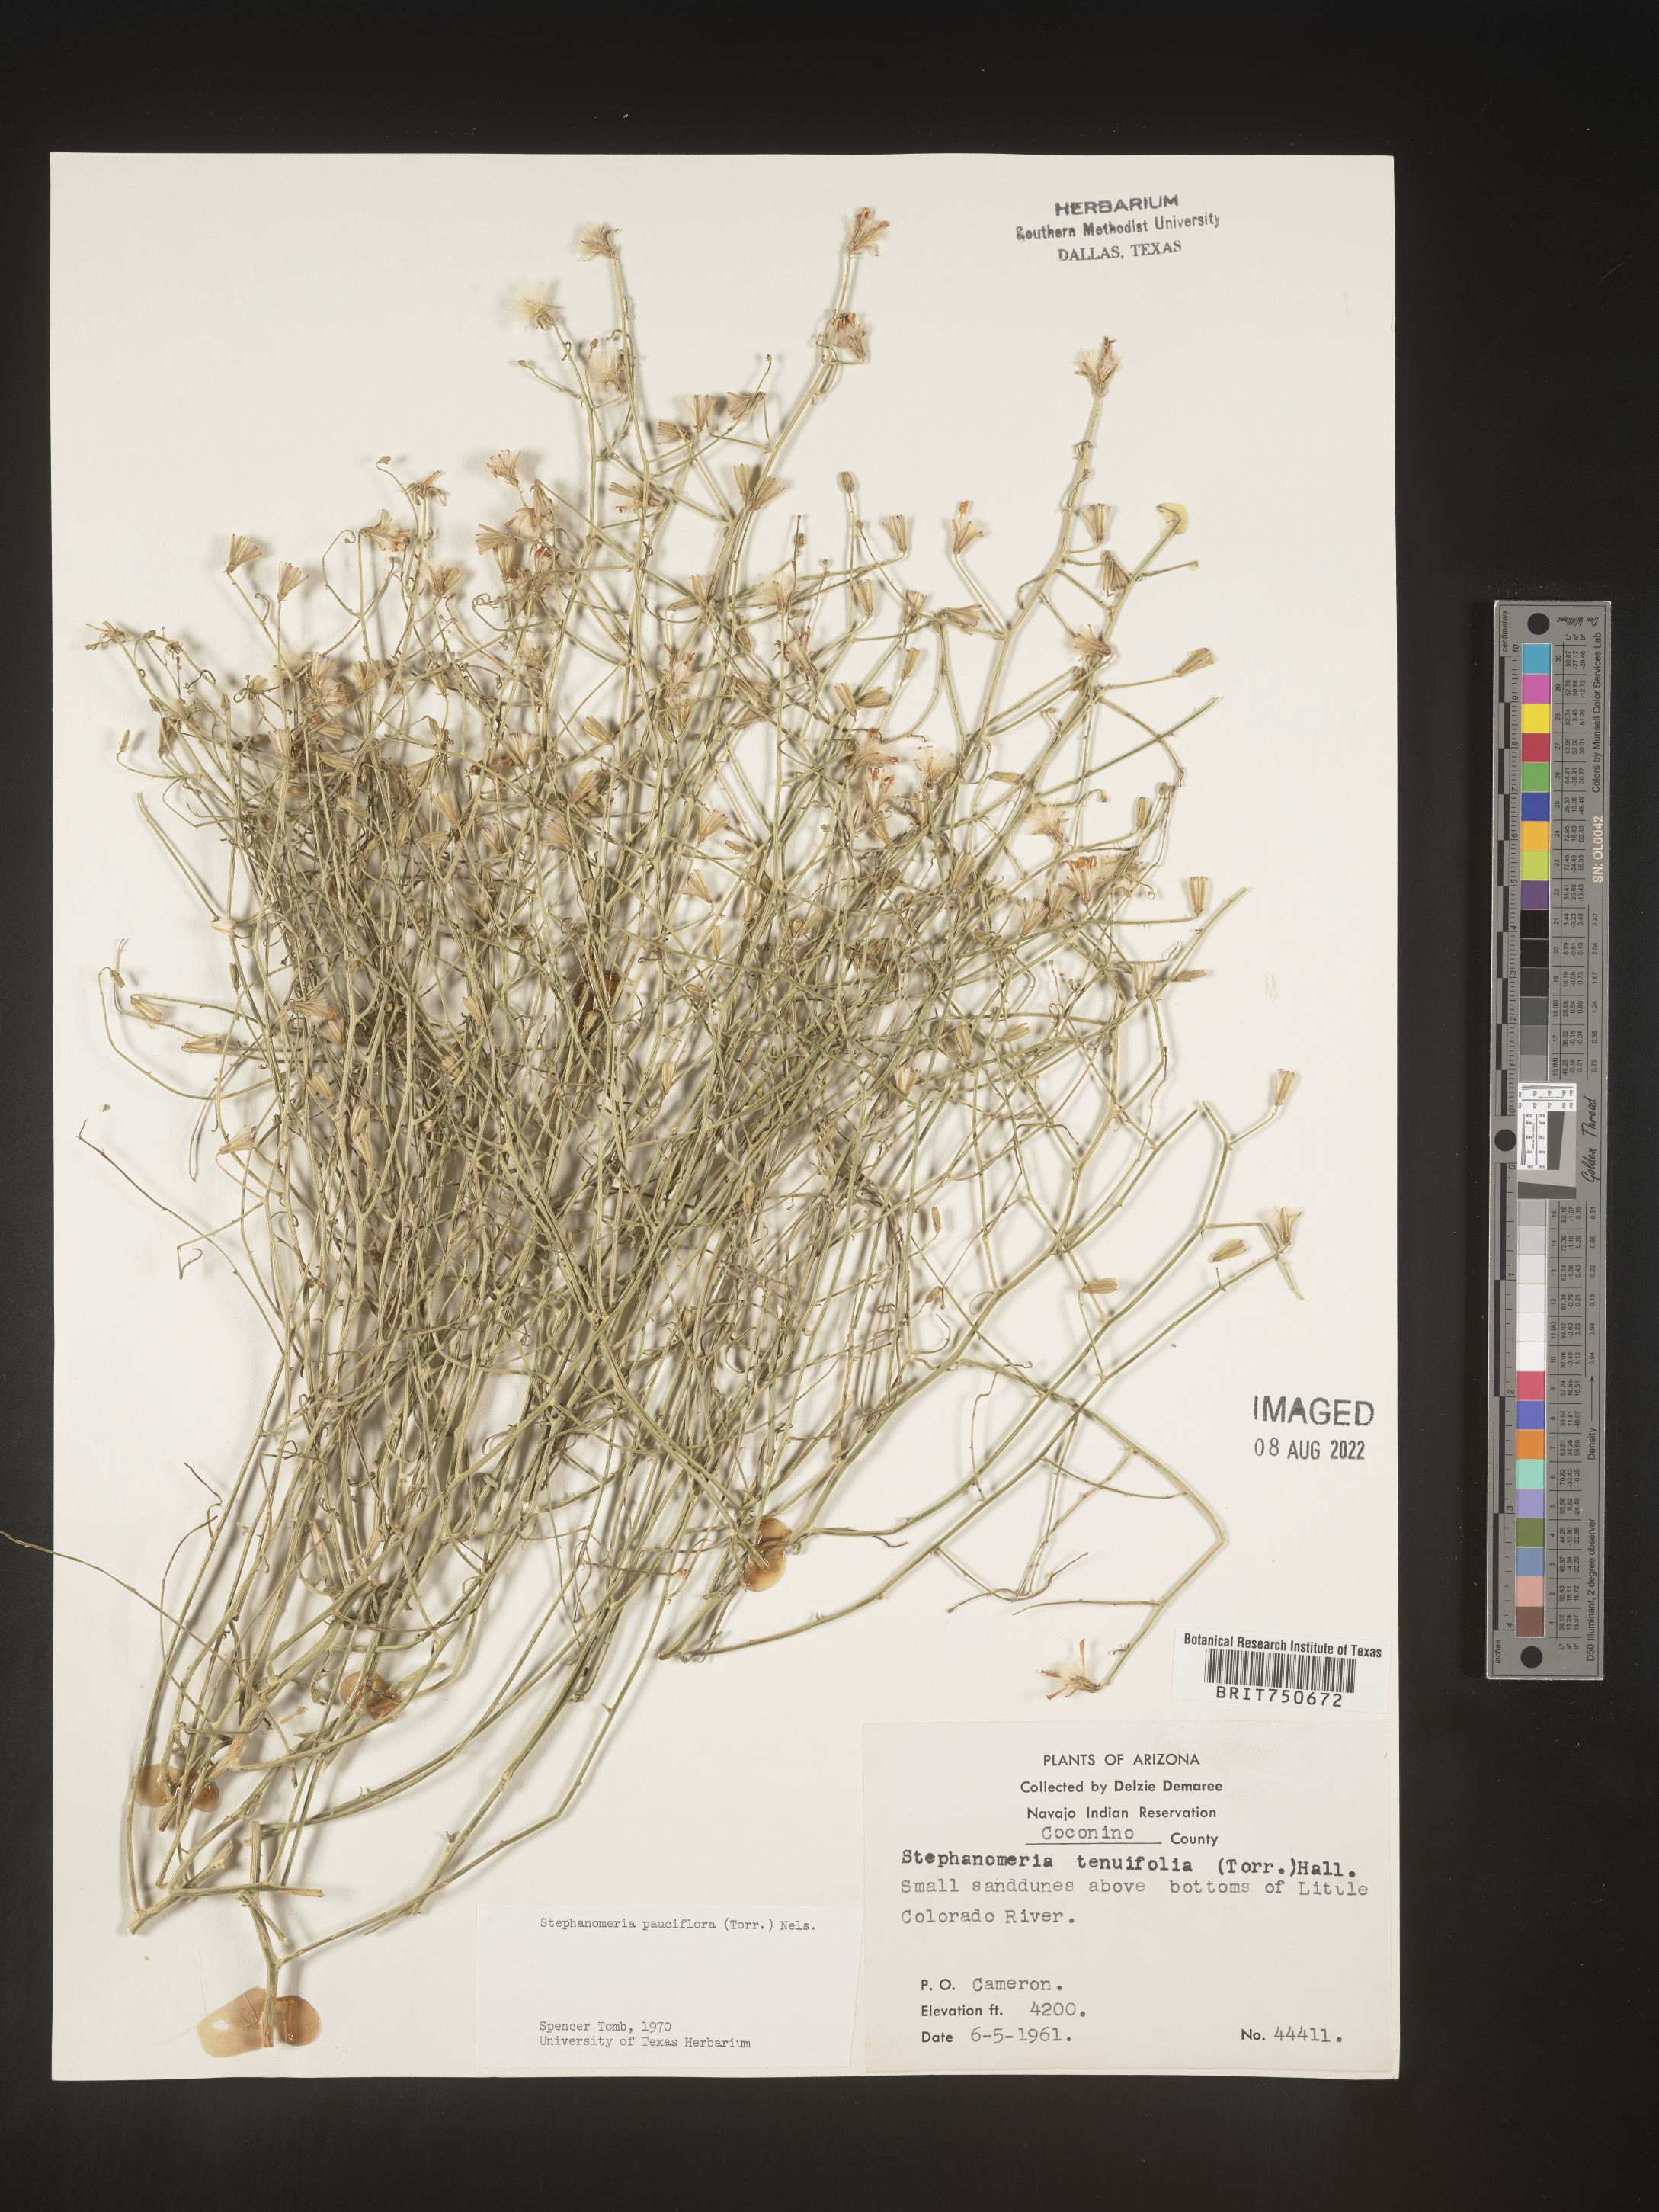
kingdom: Plantae
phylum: Tracheophyta
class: Magnoliopsida
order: Asterales
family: Asteraceae
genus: Stephanomeria
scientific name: Stephanomeria pauciflora
